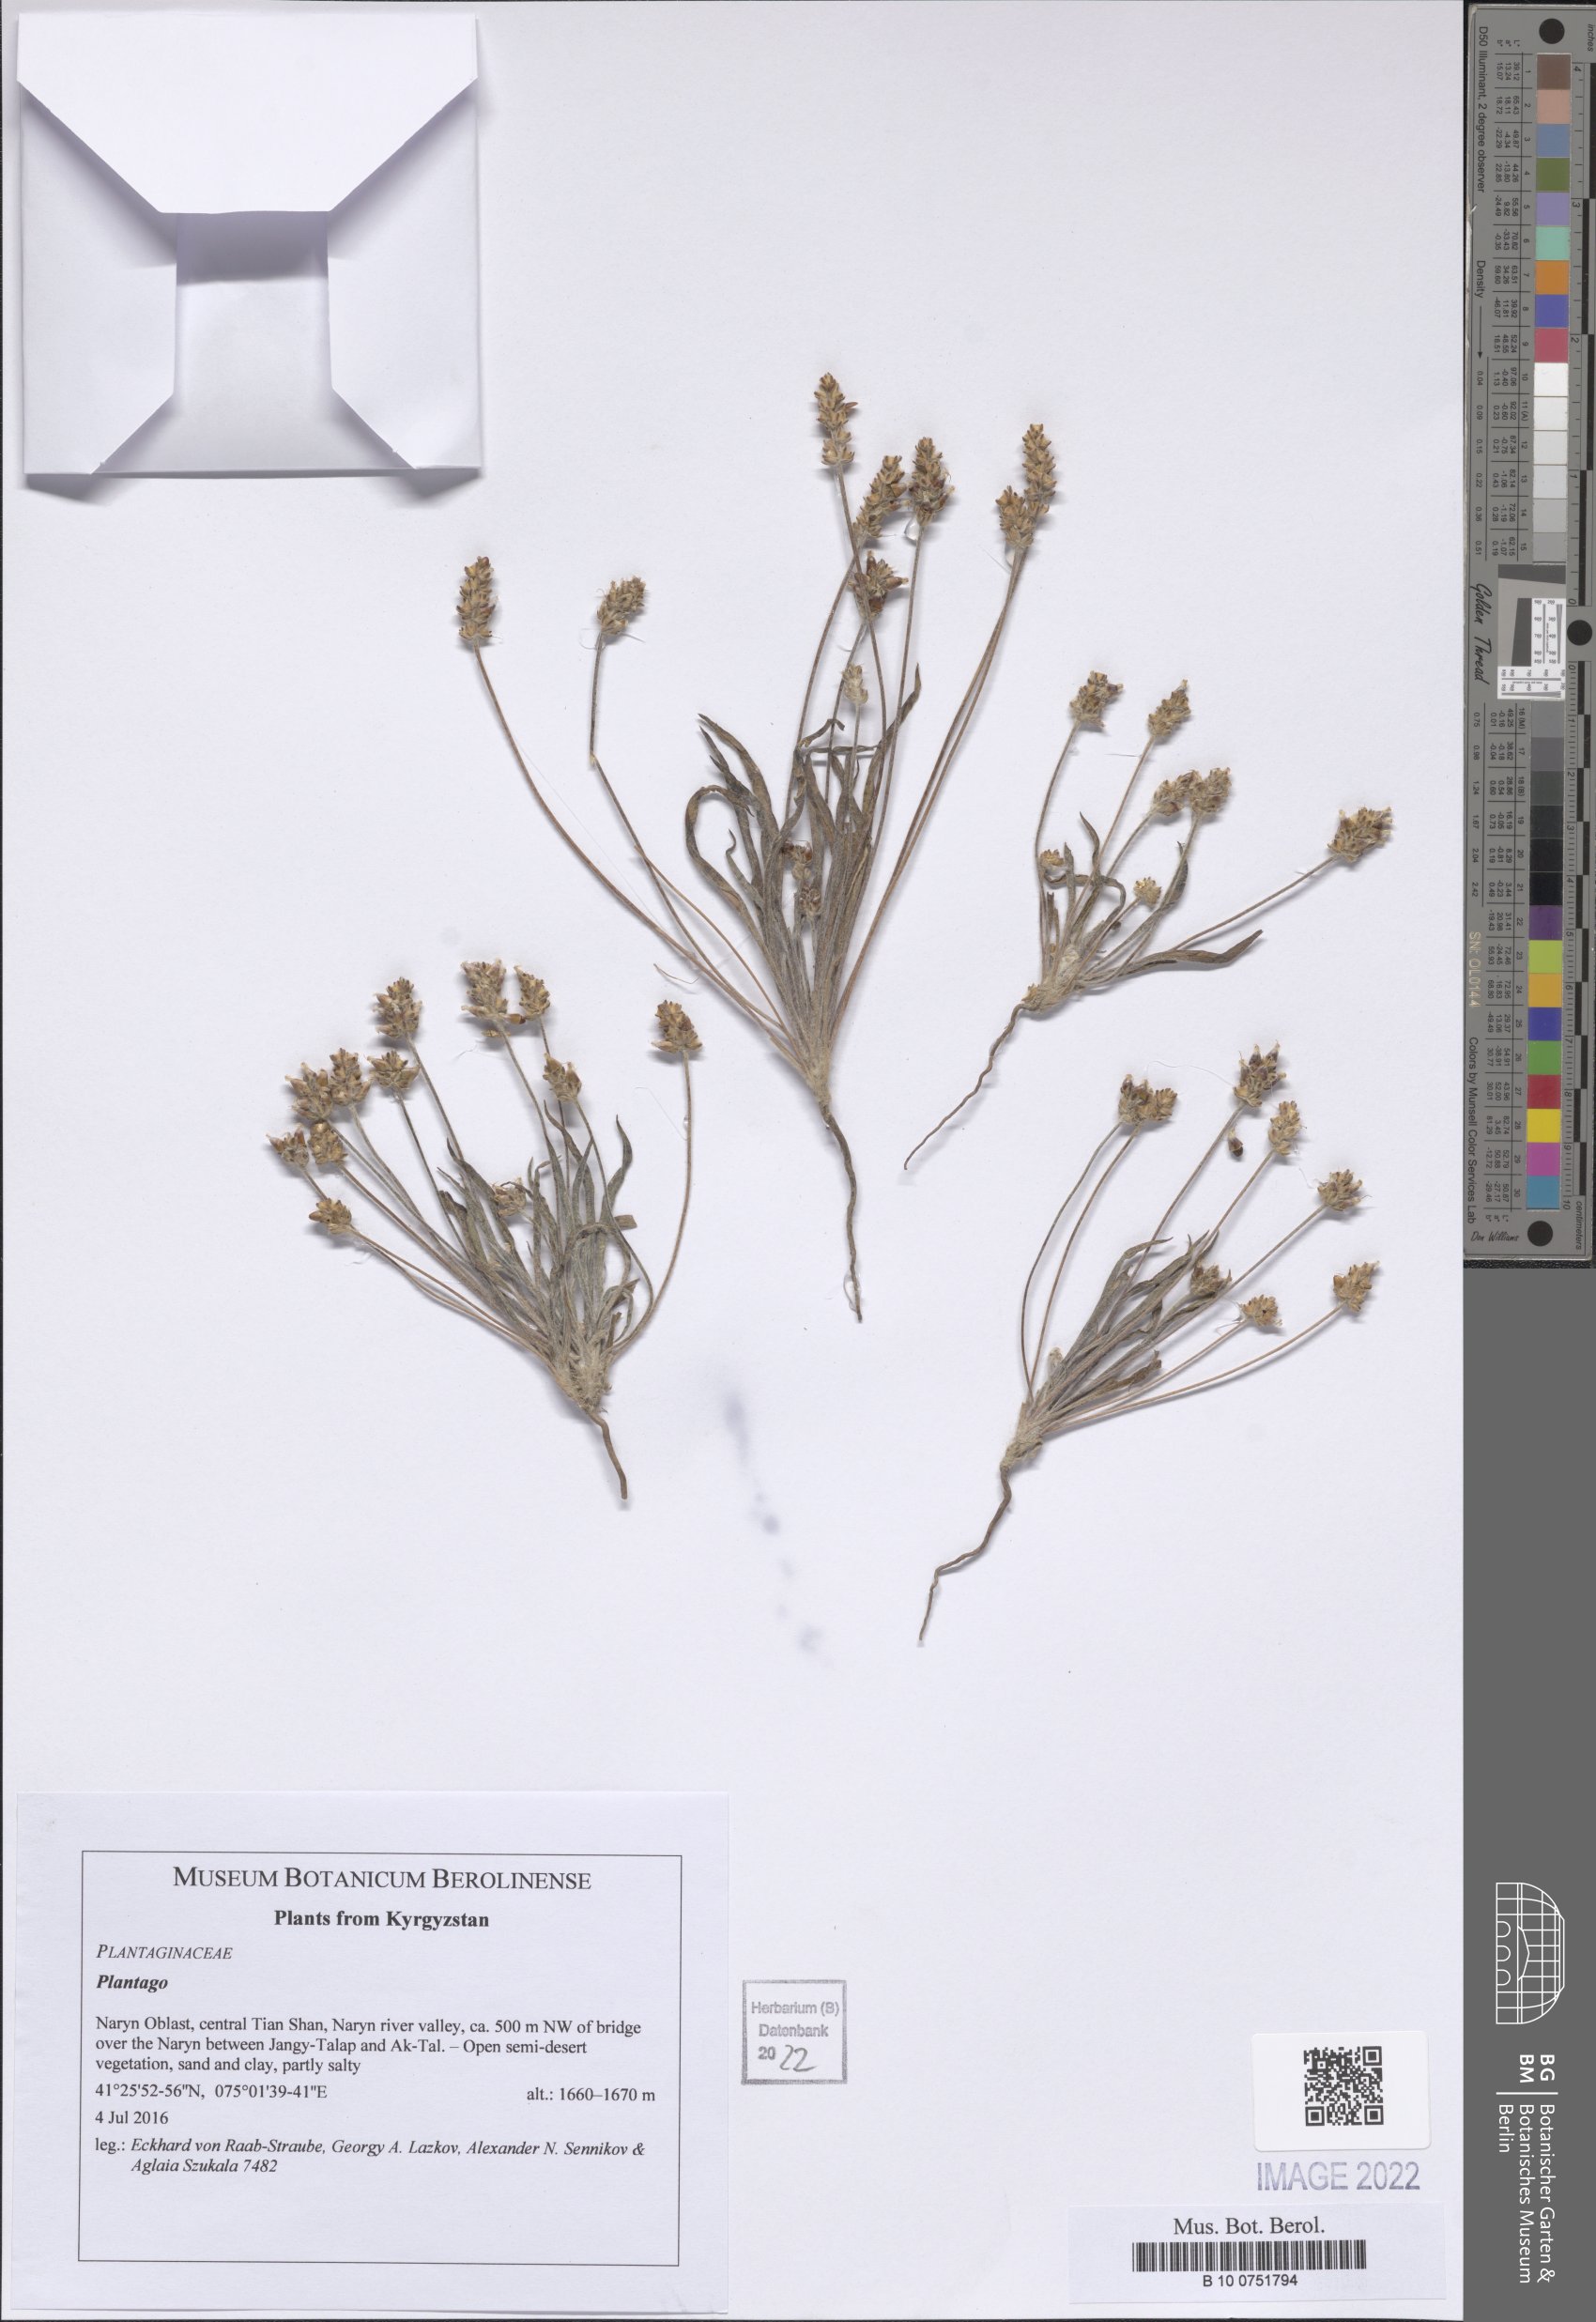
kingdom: Plantae
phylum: Tracheophyta
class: Magnoliopsida
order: Lamiales
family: Plantaginaceae
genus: Plantago
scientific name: Plantago
